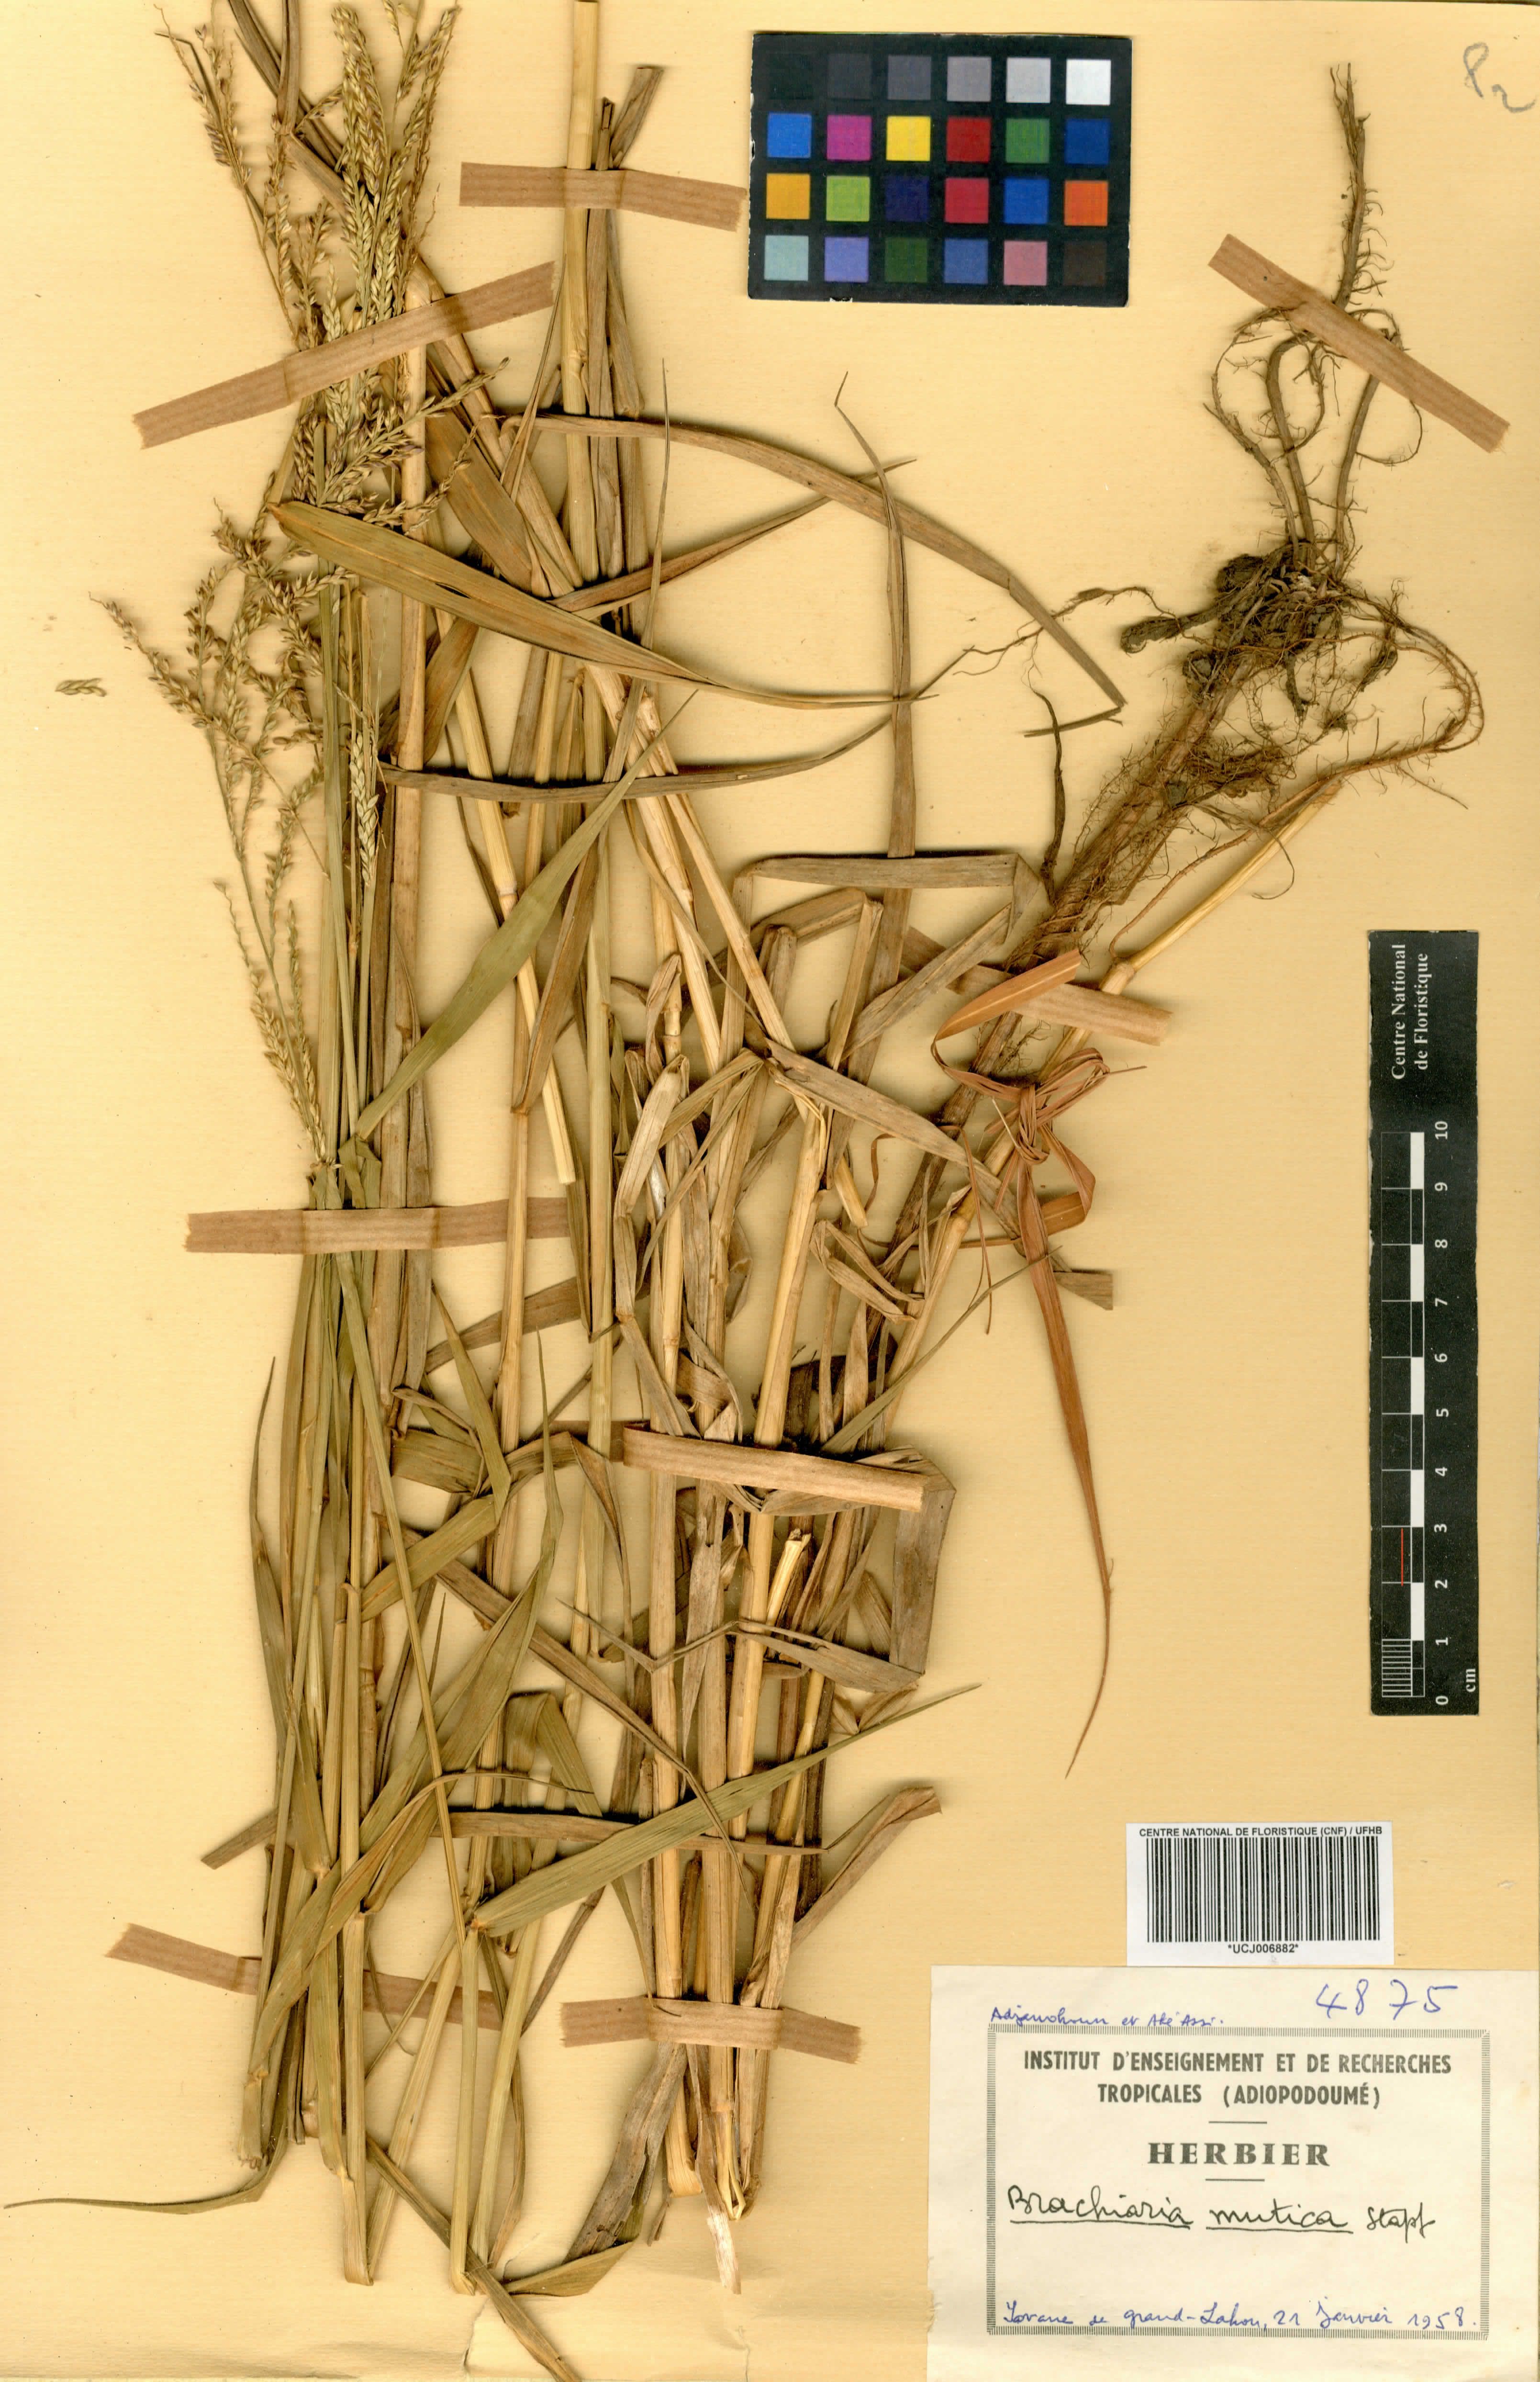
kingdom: Plantae
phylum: Tracheophyta
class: Liliopsida
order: Poales
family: Poaceae
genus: Urochloa
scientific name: Urochloa mutica
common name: Para grass
